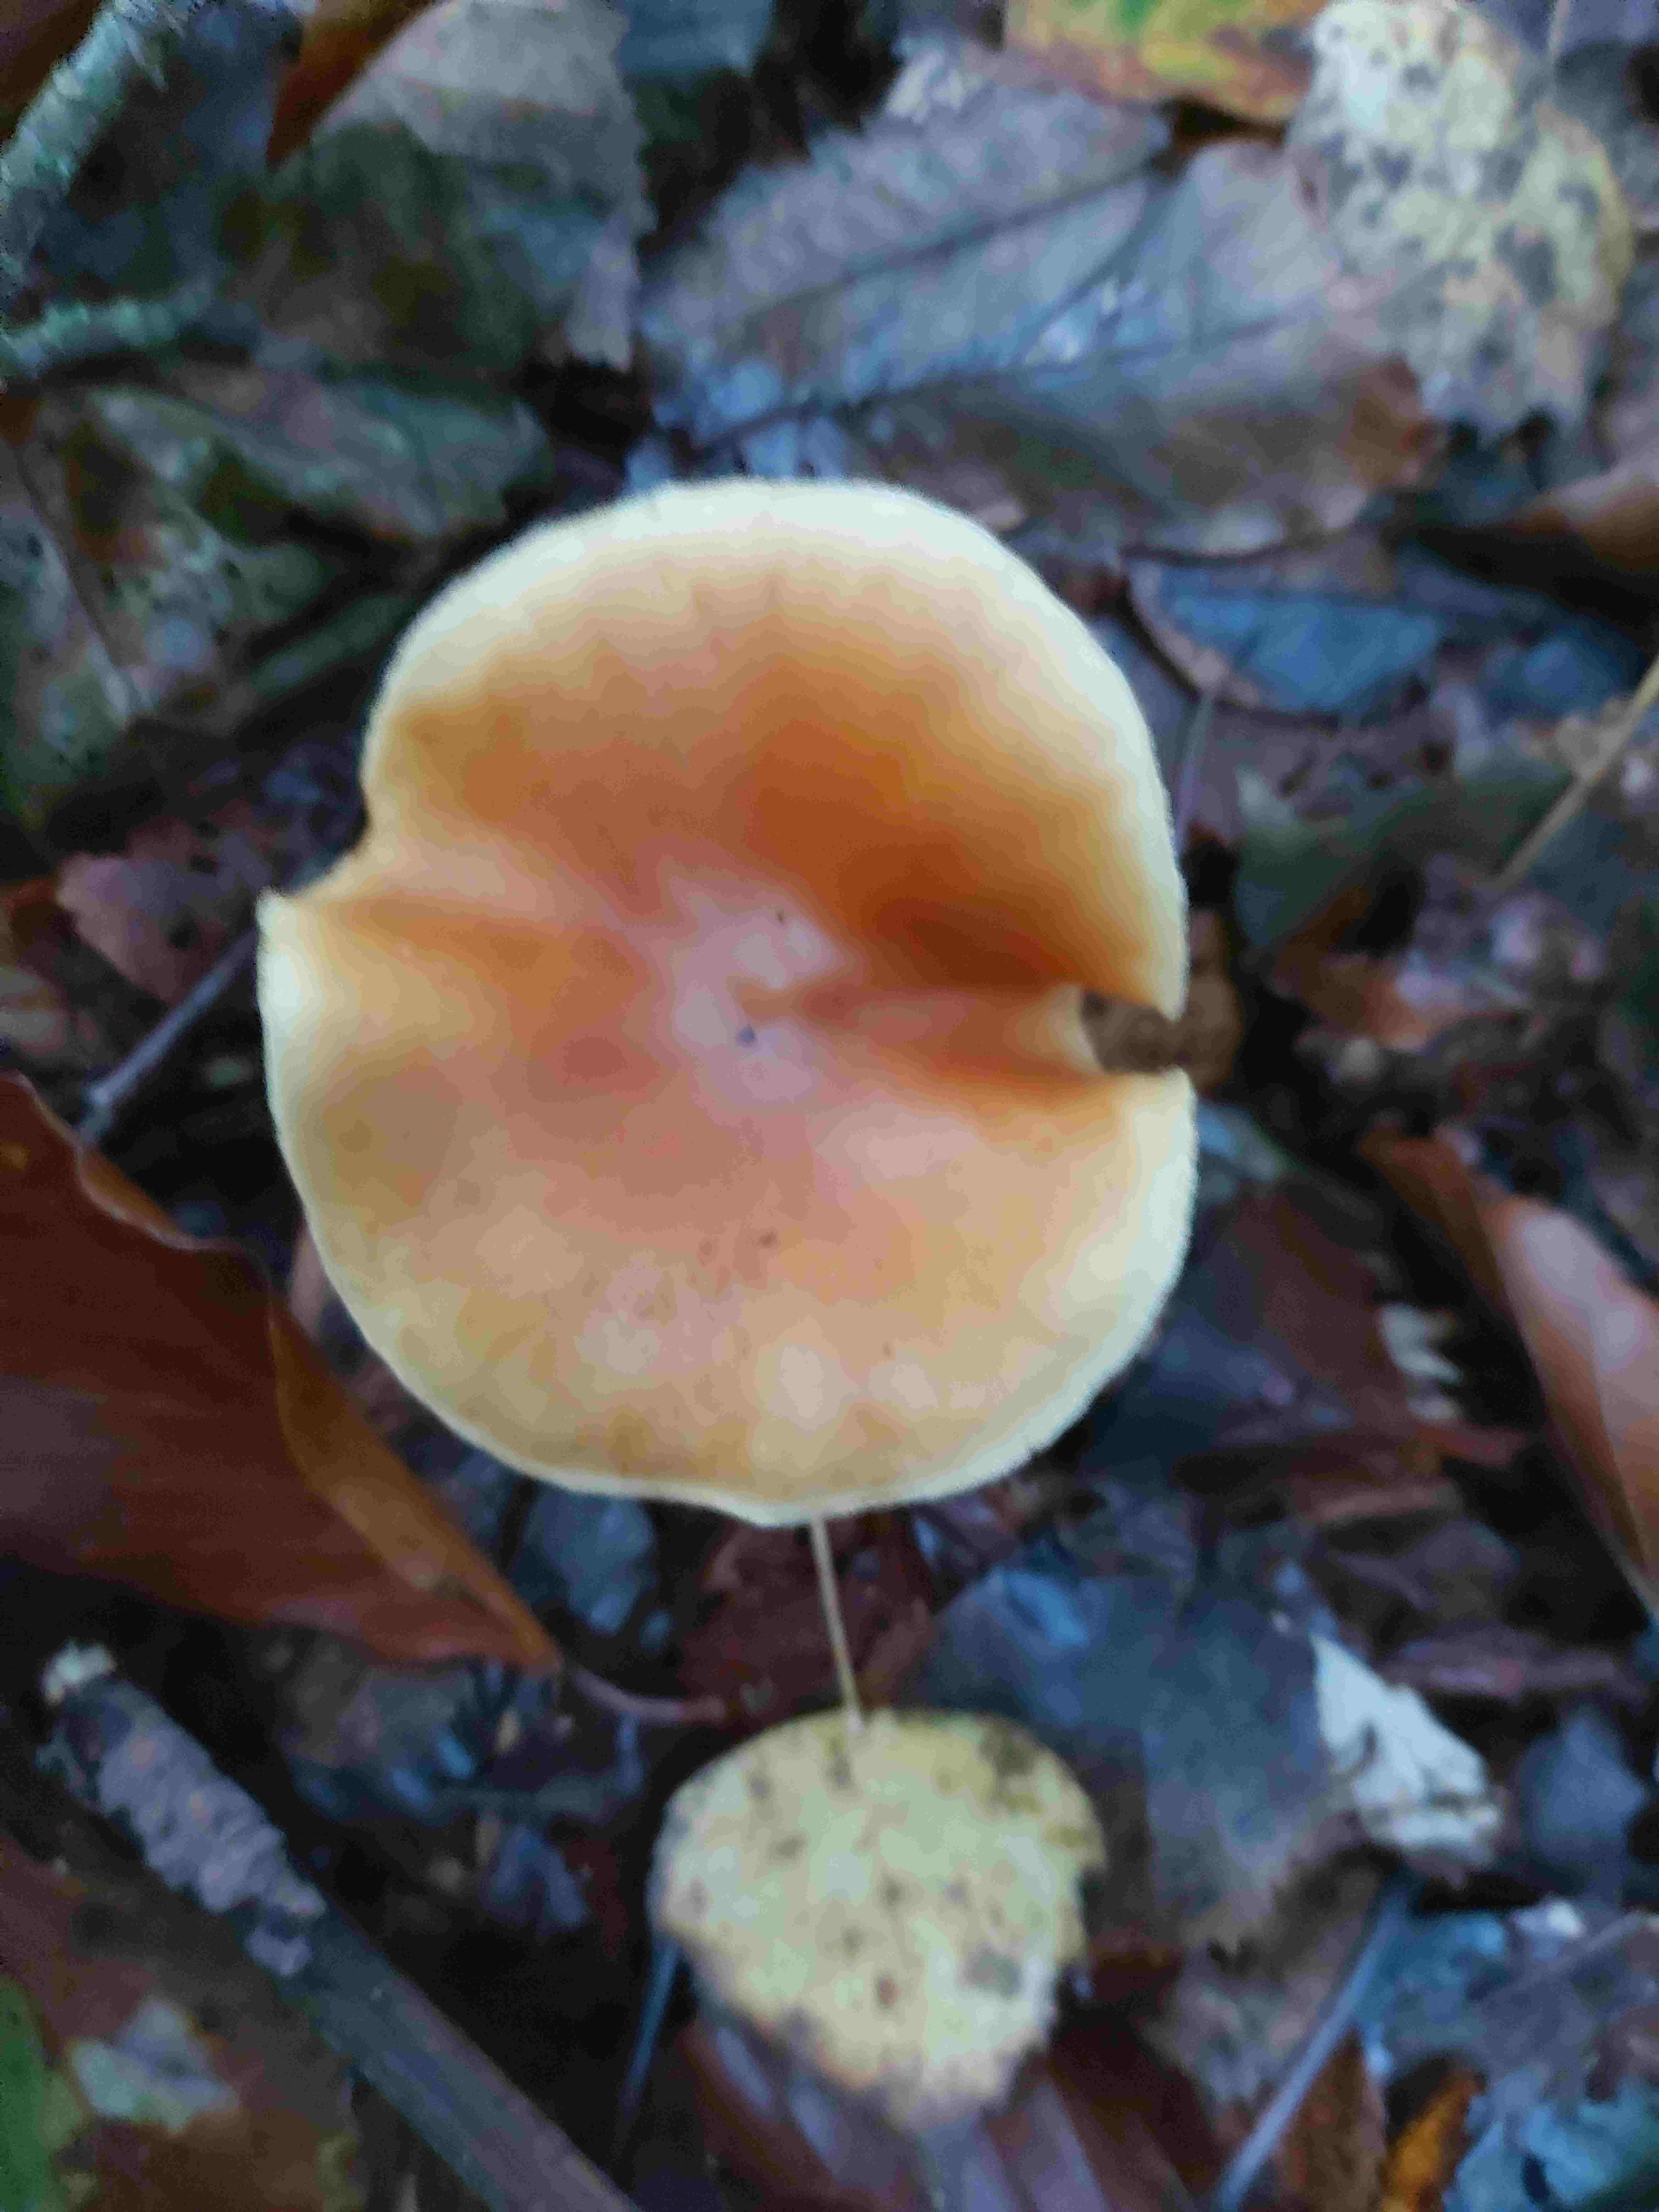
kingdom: Fungi
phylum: Basidiomycota
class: Agaricomycetes
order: Agaricales
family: Hymenogastraceae
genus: Gymnopilus
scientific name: Gymnopilus penetrans
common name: plettet flammehat
